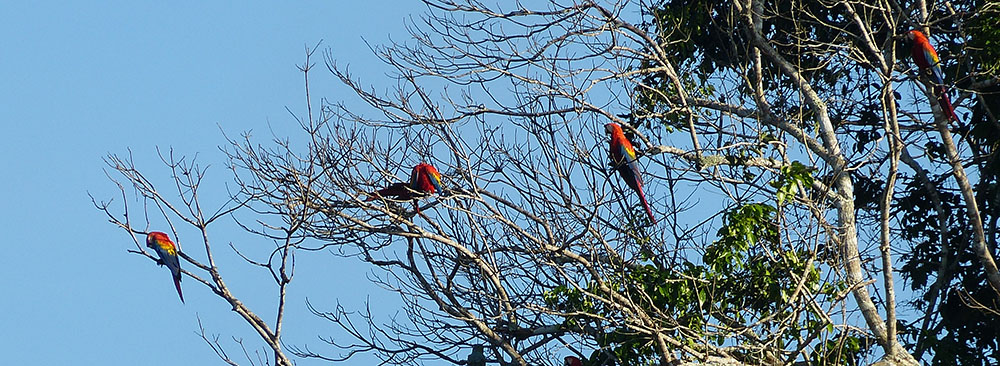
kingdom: Animalia
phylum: Chordata
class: Aves
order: Psittaciformes
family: Psittacidae
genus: Ara
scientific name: Ara macao
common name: Scarlet macaw
